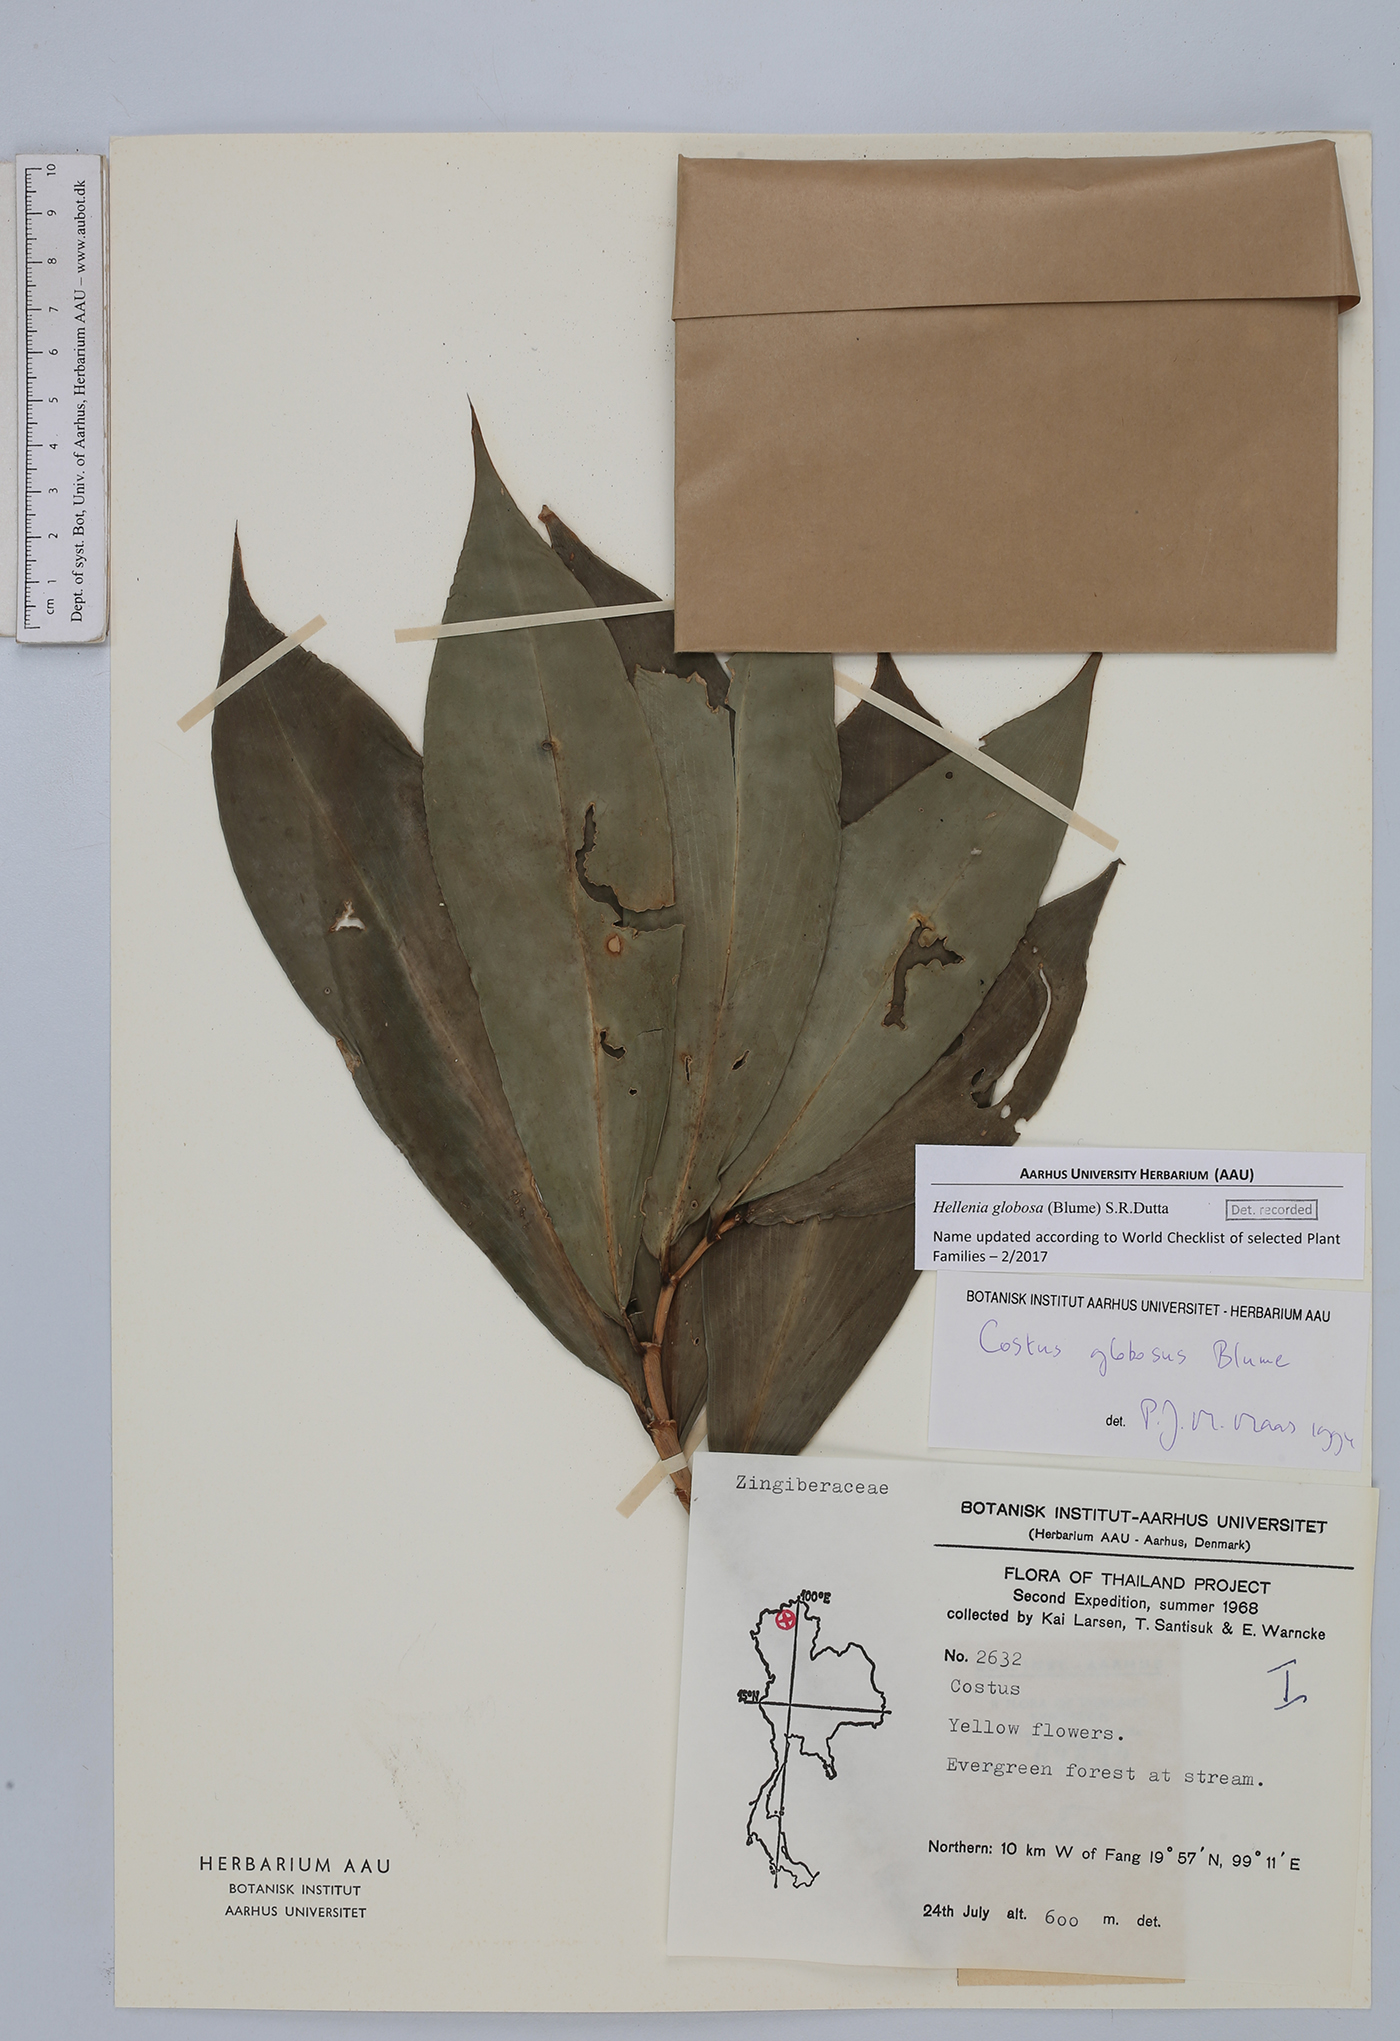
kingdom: Plantae
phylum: Tracheophyta
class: Liliopsida
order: Zingiberales
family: Costaceae
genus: Hellenia
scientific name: Hellenia globosa
